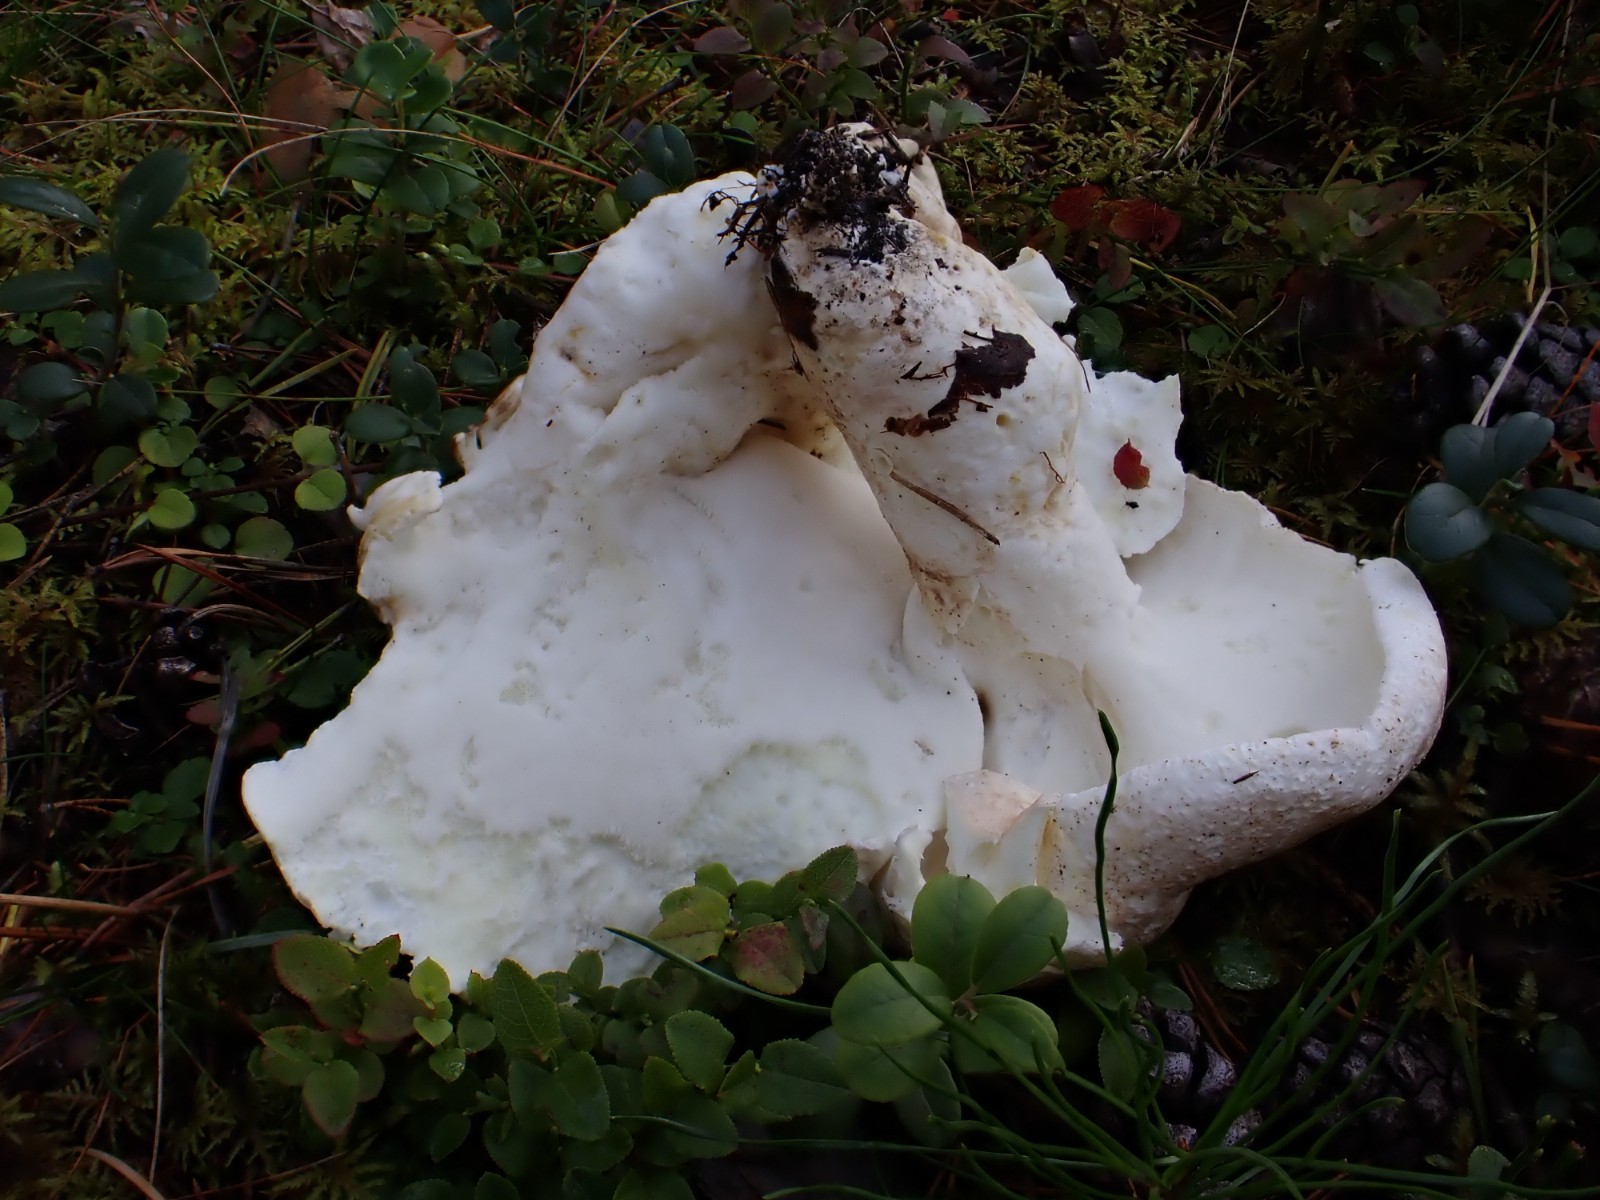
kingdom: Fungi
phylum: Basidiomycota
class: Agaricomycetes
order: Russulales
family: Albatrellaceae
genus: Albatrellus
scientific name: Albatrellus ovinus
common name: hvidlig fåreporesvamp
